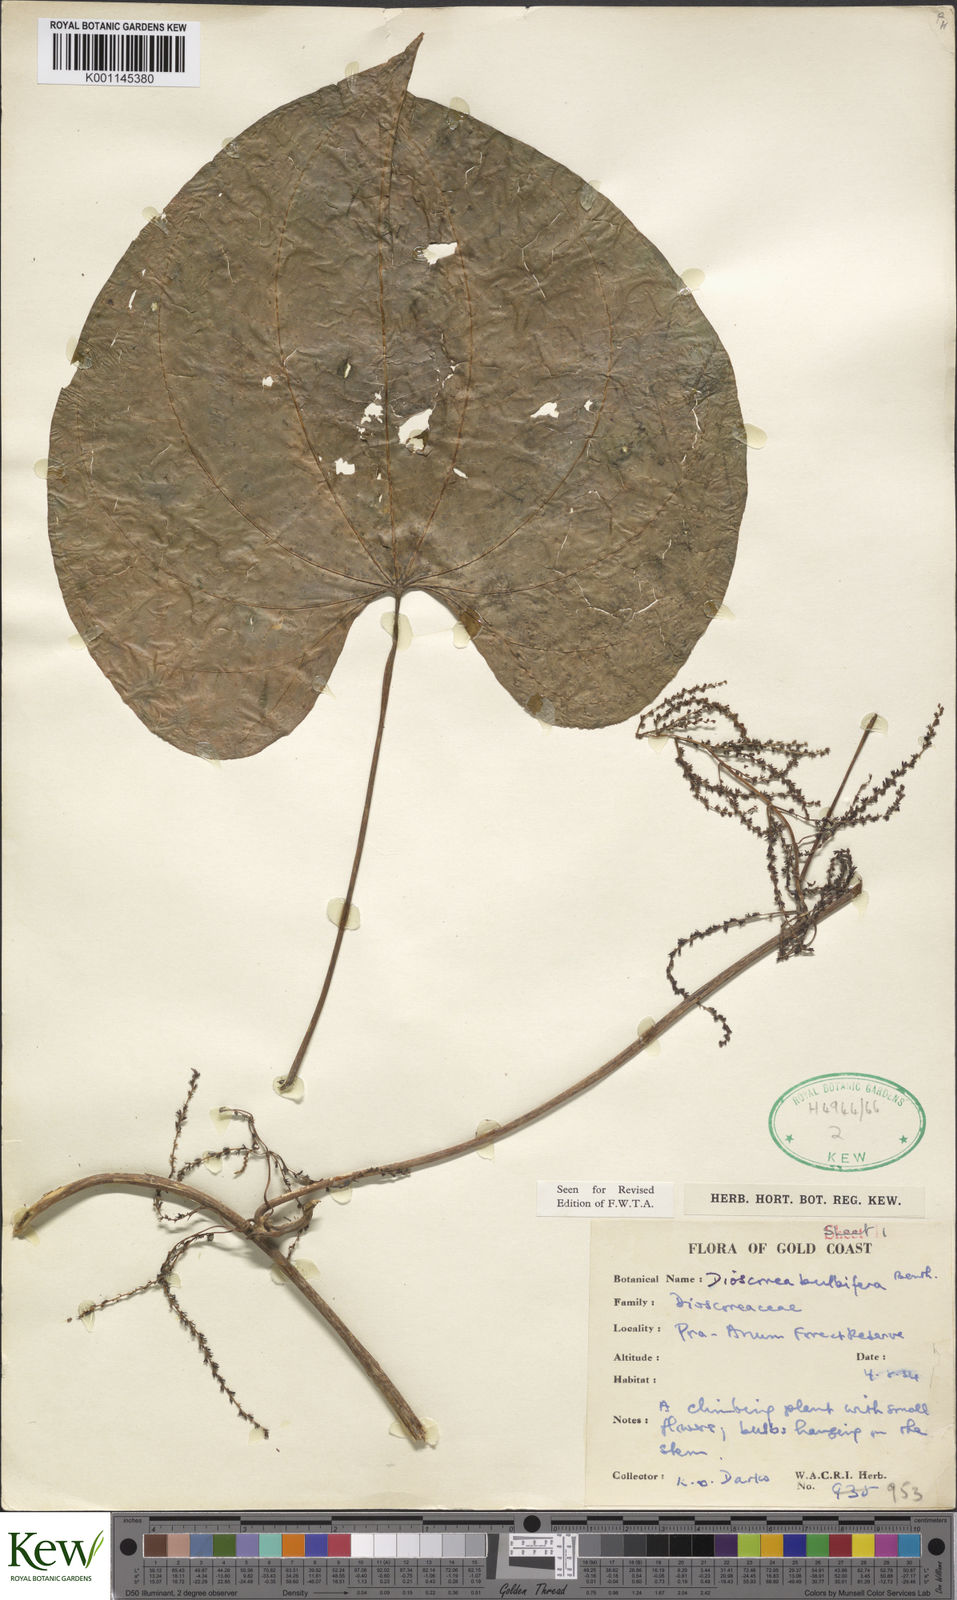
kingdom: Plantae
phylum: Tracheophyta
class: Liliopsida
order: Dioscoreales
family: Dioscoreaceae
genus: Dioscorea
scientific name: Dioscorea bulbifera
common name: Air yam
